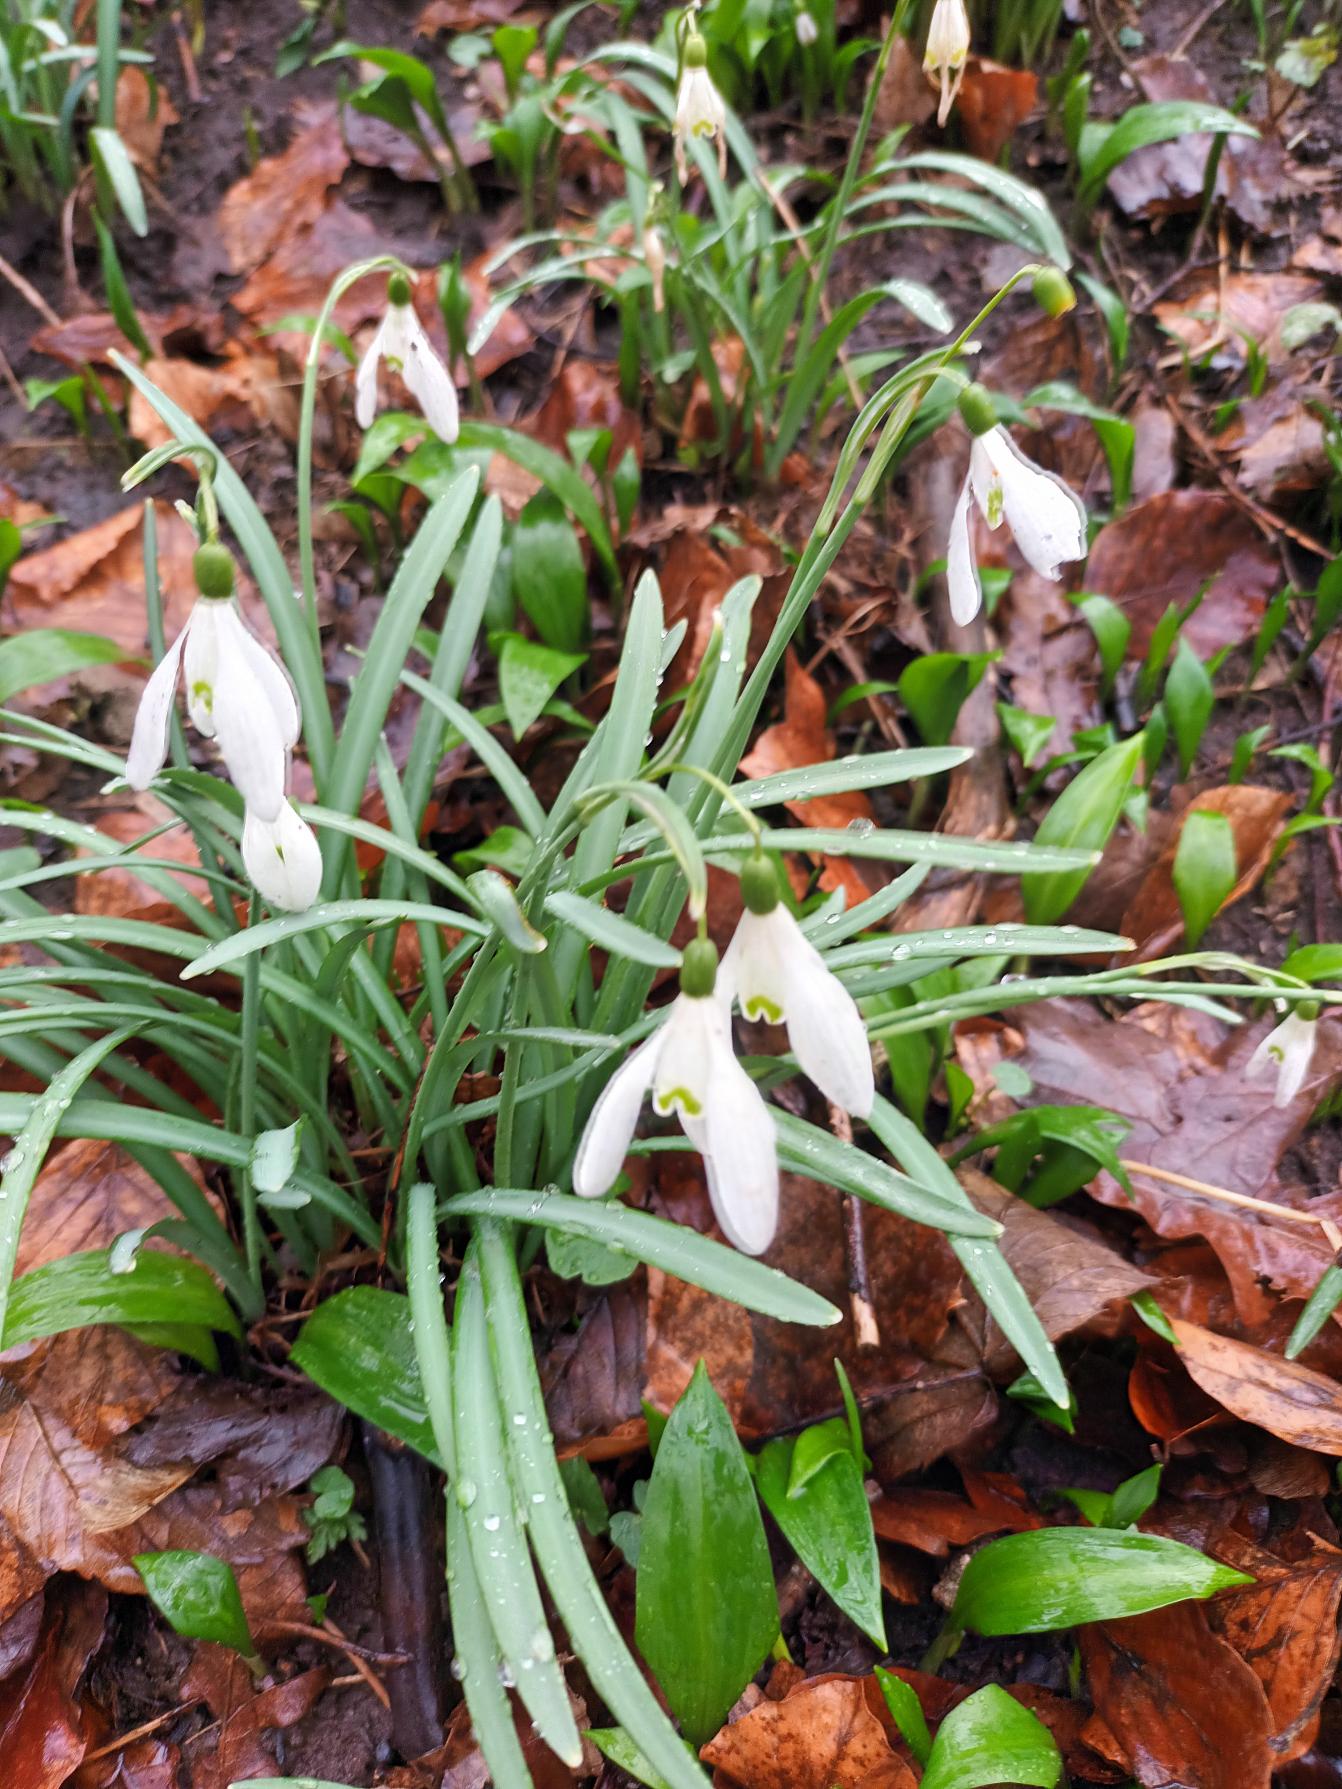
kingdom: Plantae
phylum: Tracheophyta
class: Liliopsida
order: Asparagales
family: Amaryllidaceae
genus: Galanthus
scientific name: Galanthus nivalis
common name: Vintergæk
